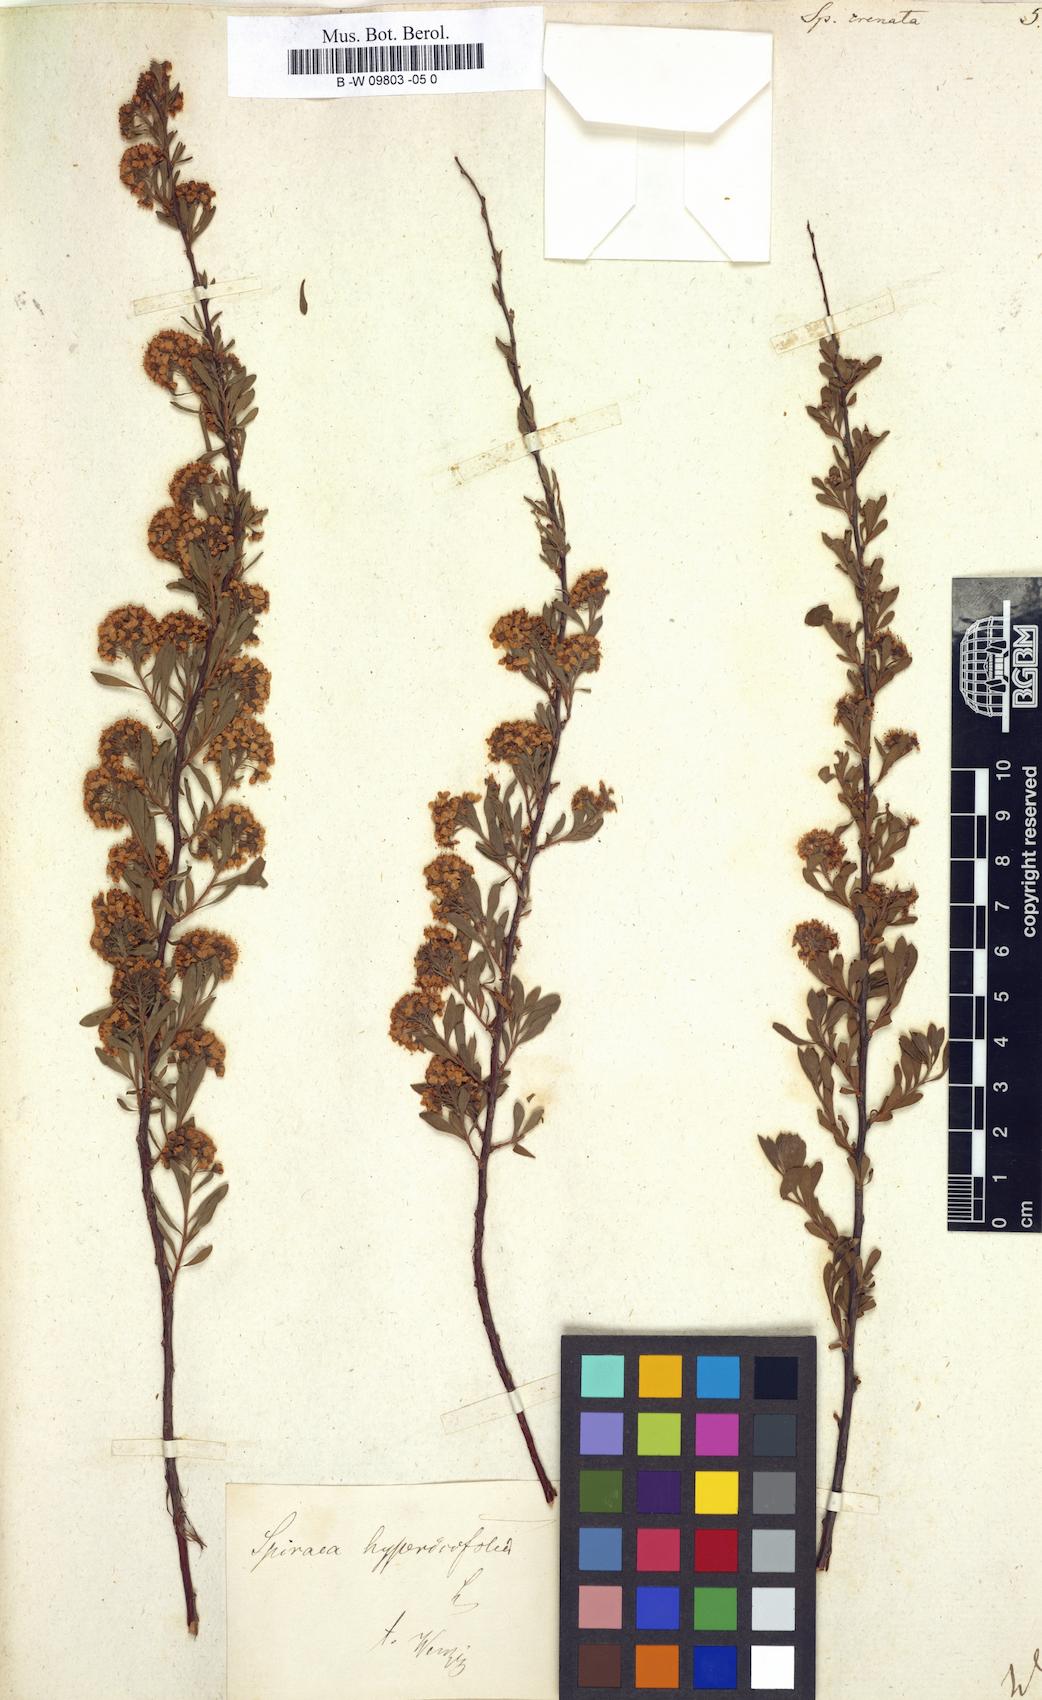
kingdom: Plantae
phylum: Tracheophyta
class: Magnoliopsida
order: Rosales
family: Rosaceae
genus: Spiraea
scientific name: Spiraea crenata
